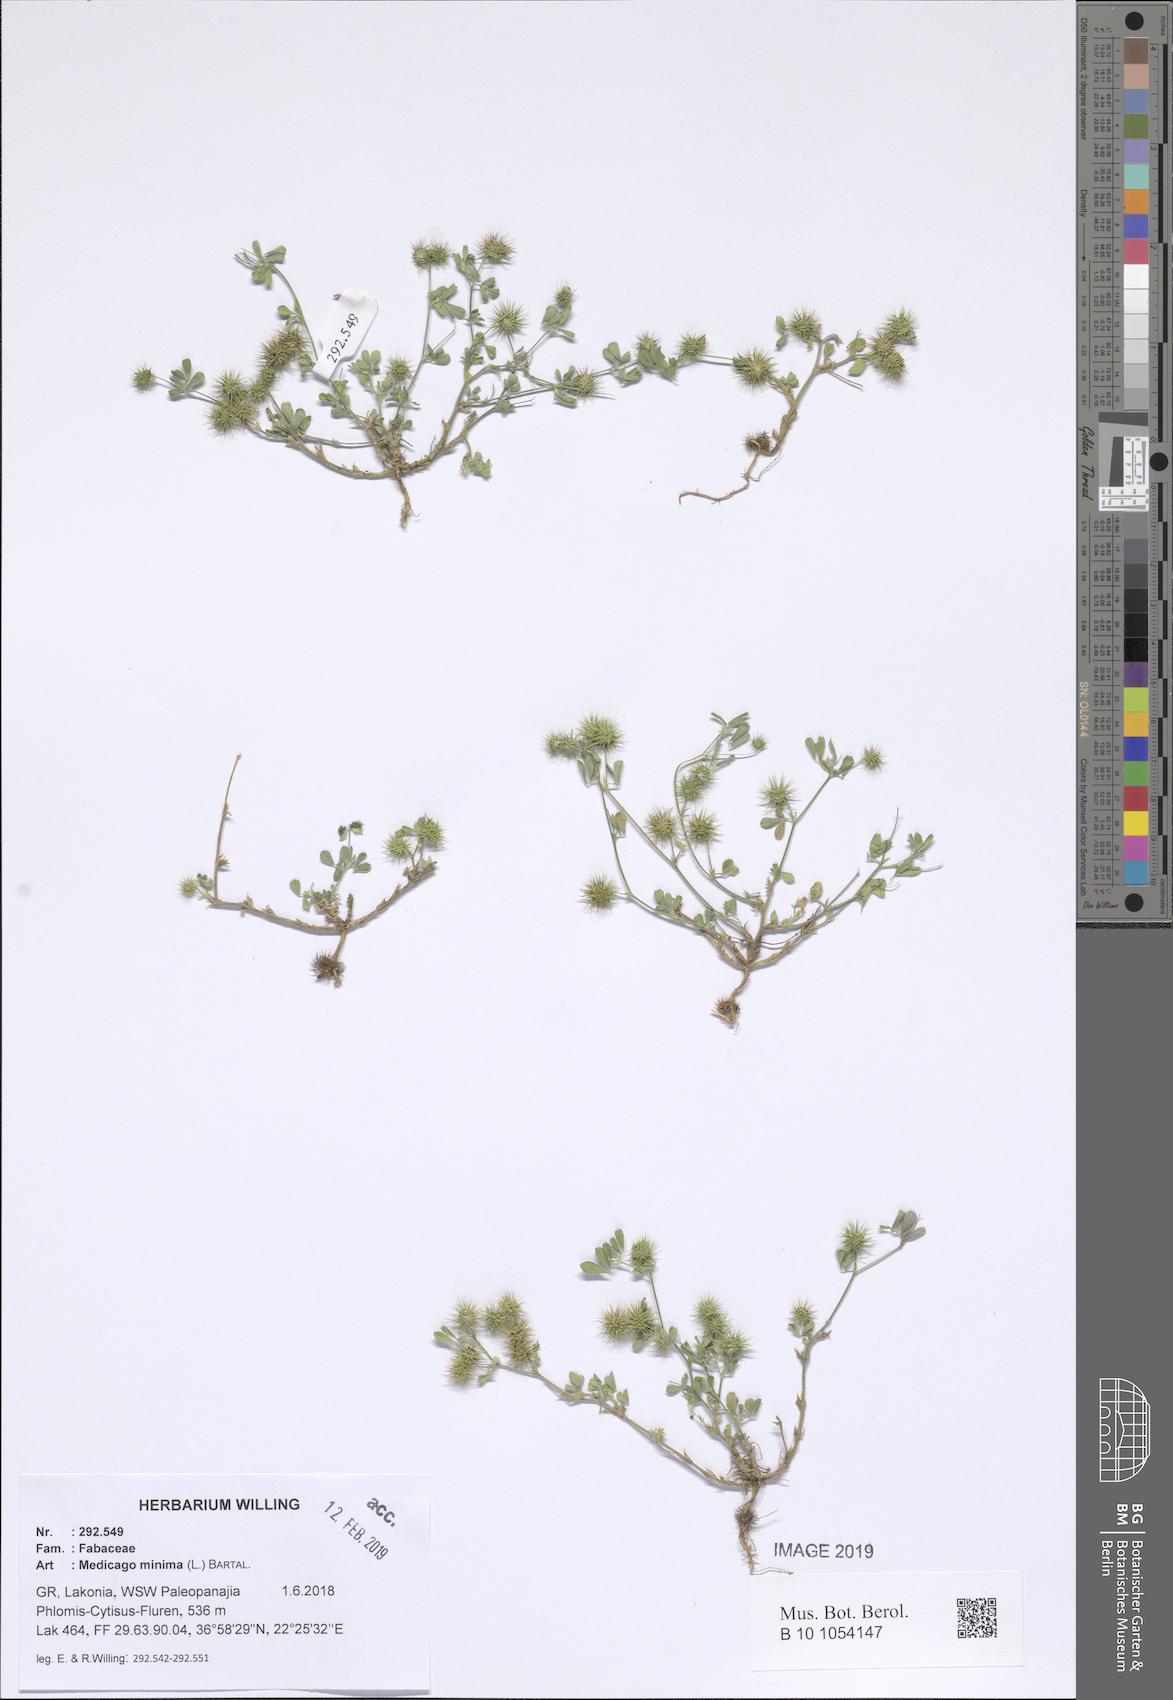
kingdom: Plantae
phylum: Tracheophyta
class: Magnoliopsida
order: Fabales
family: Fabaceae
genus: Medicago
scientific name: Medicago minima
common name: Little bur-clover
